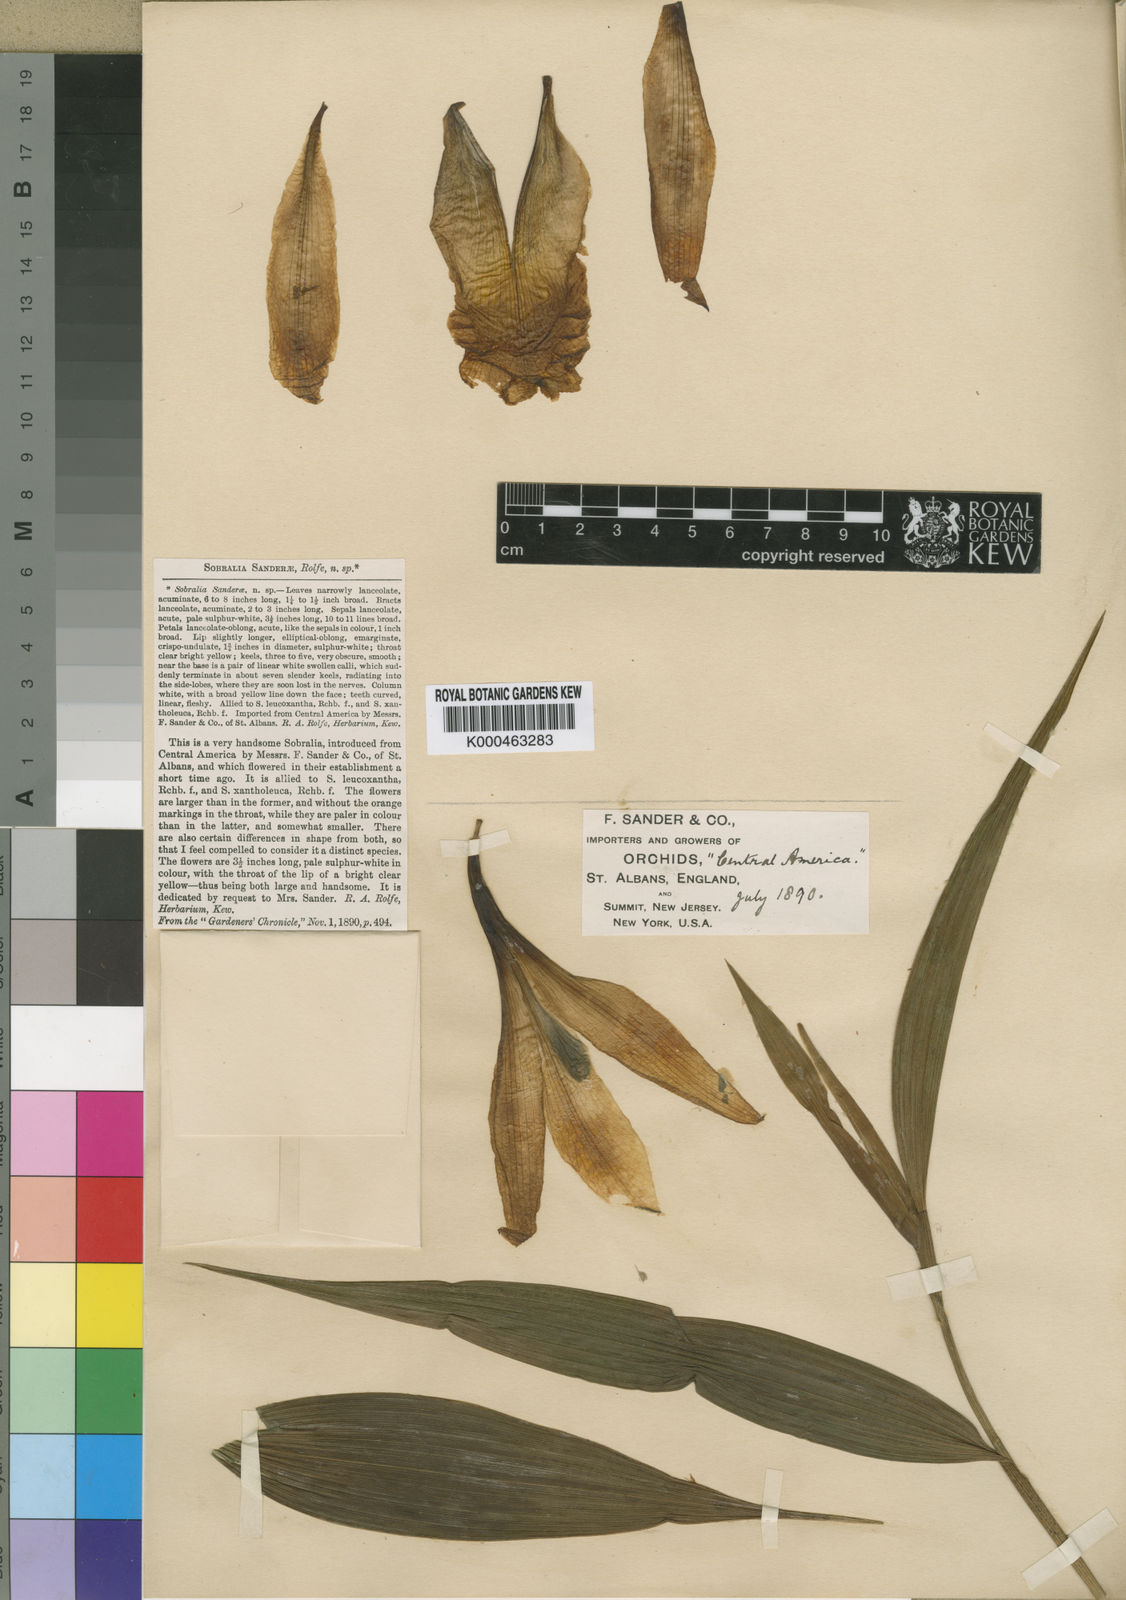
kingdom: Plantae
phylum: Tracheophyta
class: Liliopsida
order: Asparagales
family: Orchidaceae
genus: Sobralia
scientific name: Sobralia wilsoniana
